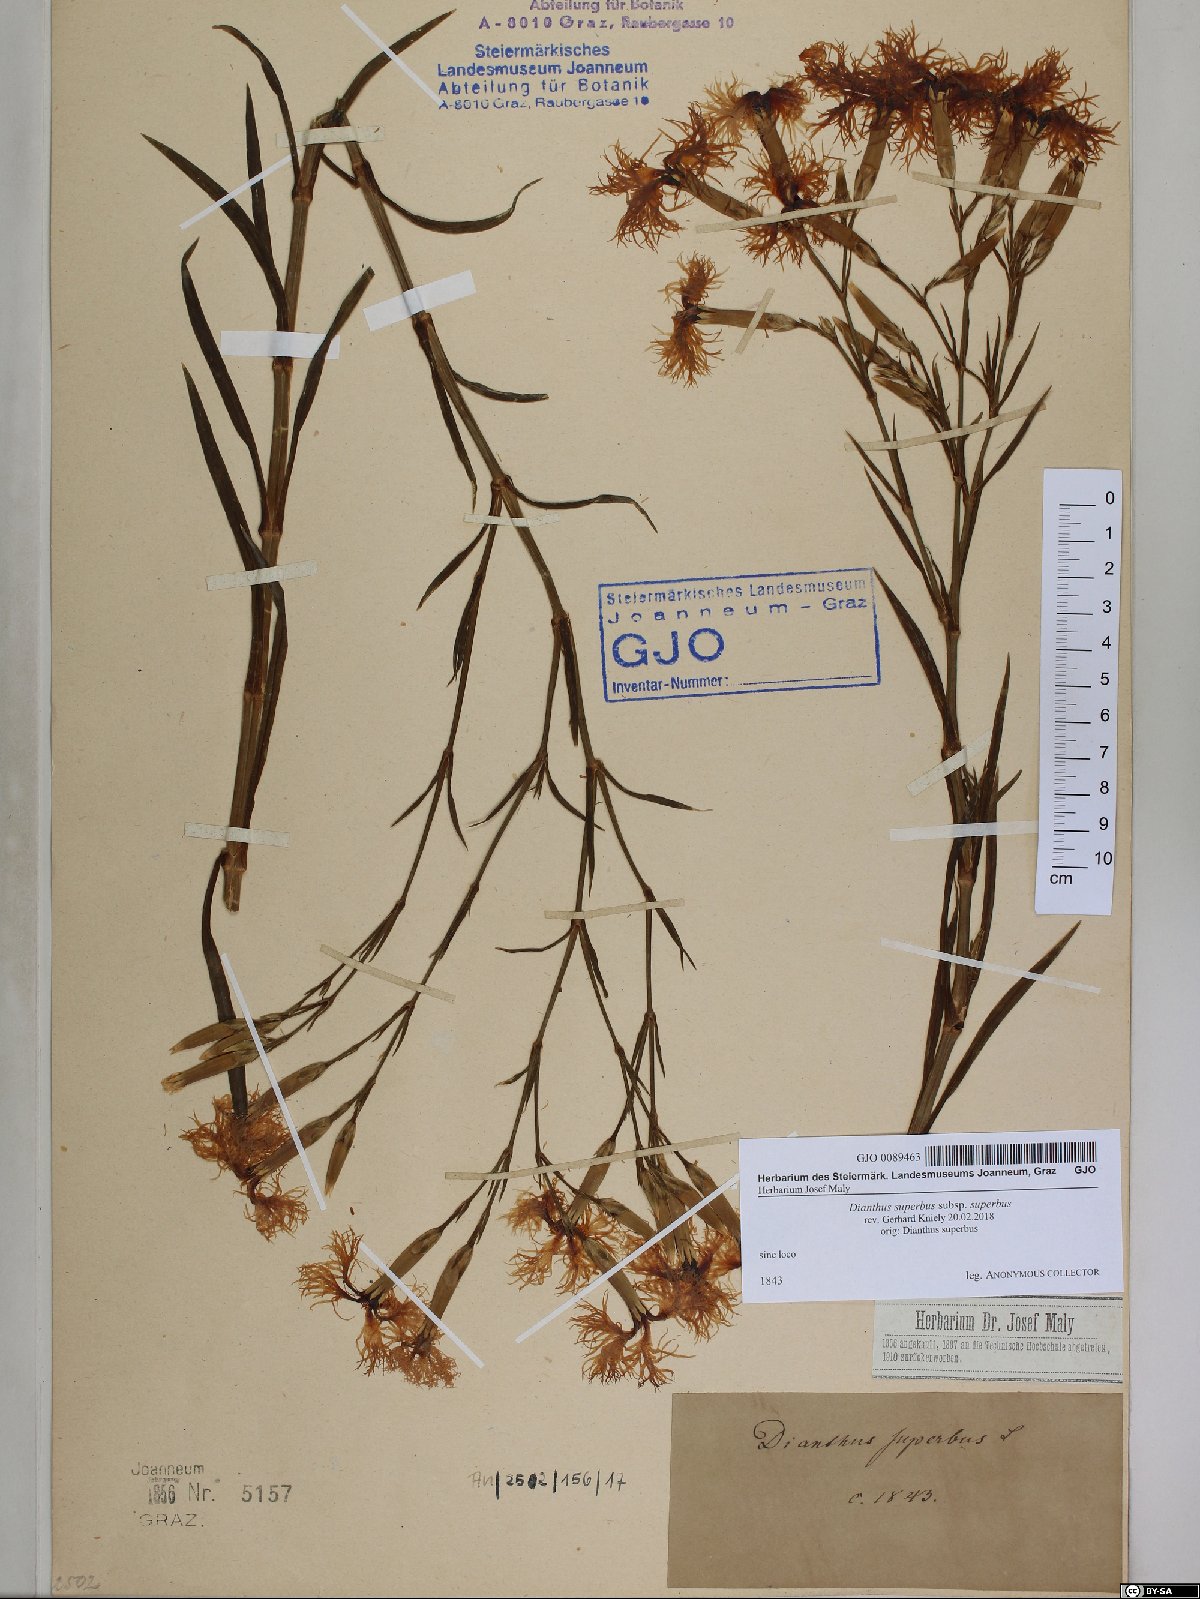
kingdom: Plantae
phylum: Tracheophyta
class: Magnoliopsida
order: Caryophyllales
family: Caryophyllaceae
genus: Dianthus
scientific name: Dianthus superbus
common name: Fringed pink
